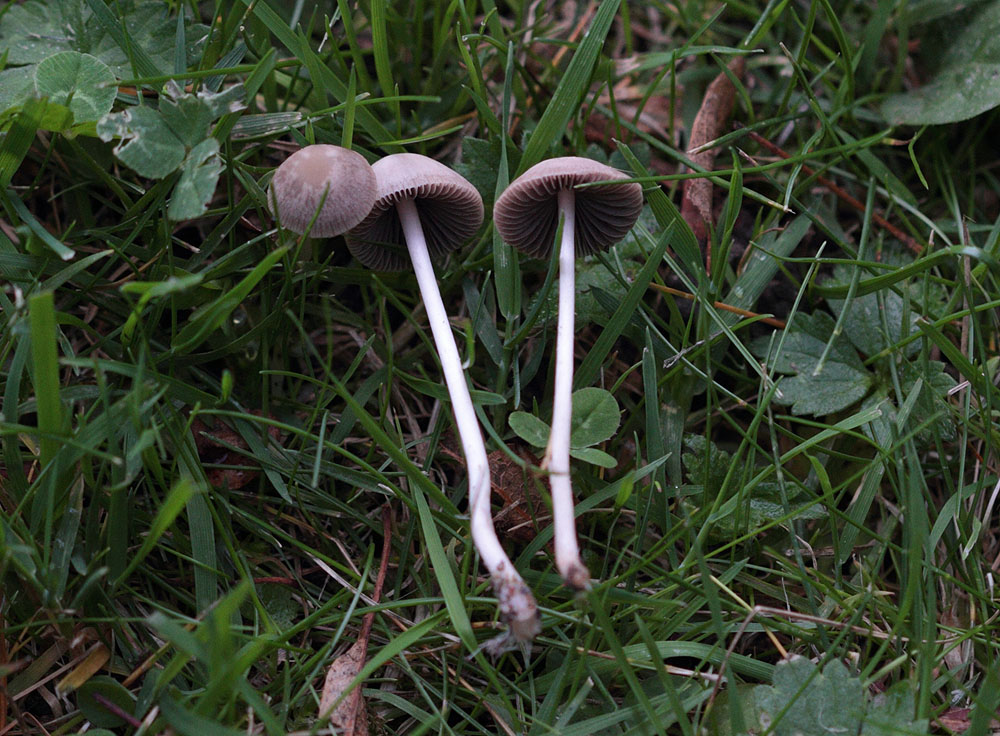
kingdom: Fungi
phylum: Basidiomycota
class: Agaricomycetes
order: Agaricales
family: Psathyrellaceae
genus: Psathyrella
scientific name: Psathyrella prona
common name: vej-mørkhat
